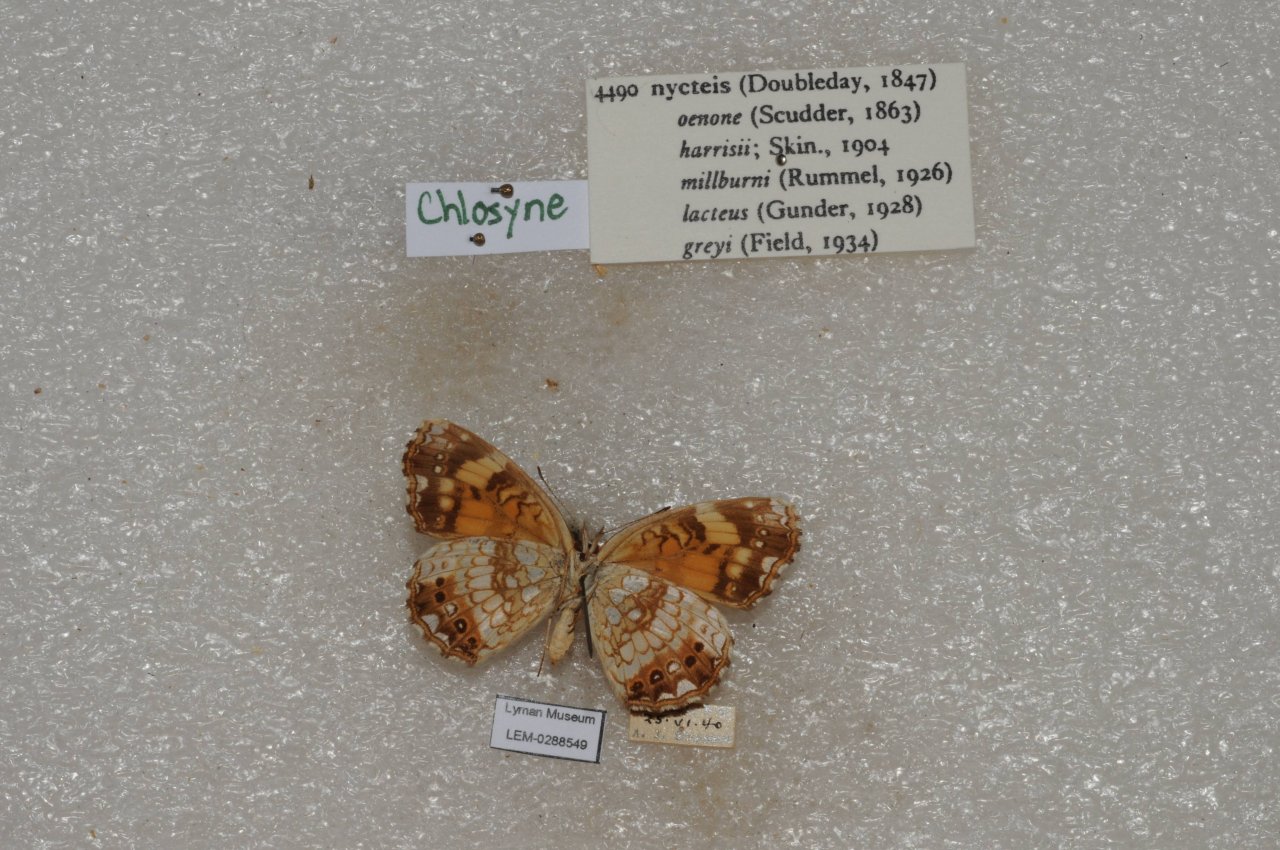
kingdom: Animalia
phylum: Arthropoda
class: Insecta
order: Lepidoptera
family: Nymphalidae
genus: Chlosyne
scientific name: Chlosyne nycteis
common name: Silvery Checkerspot
